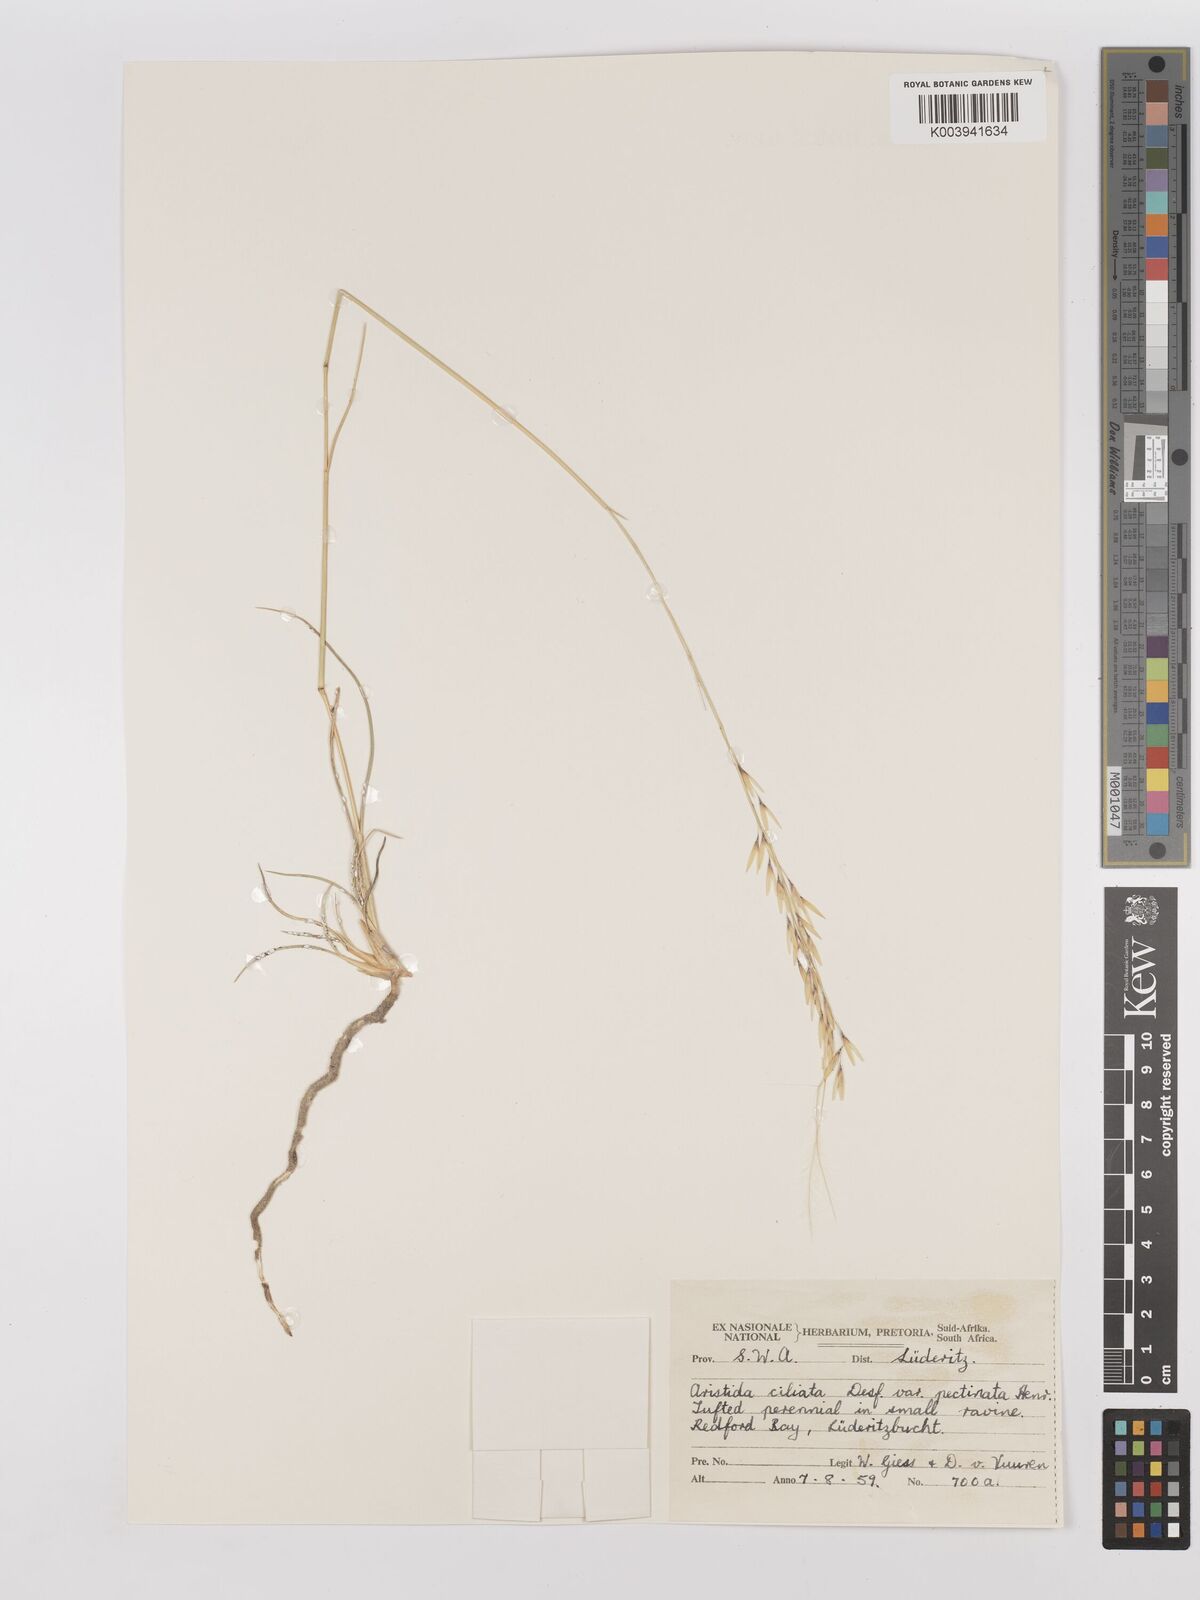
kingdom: Plantae
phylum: Tracheophyta
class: Liliopsida
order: Poales
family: Poaceae
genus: Stipagrostis
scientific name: Stipagrostis ciliata
